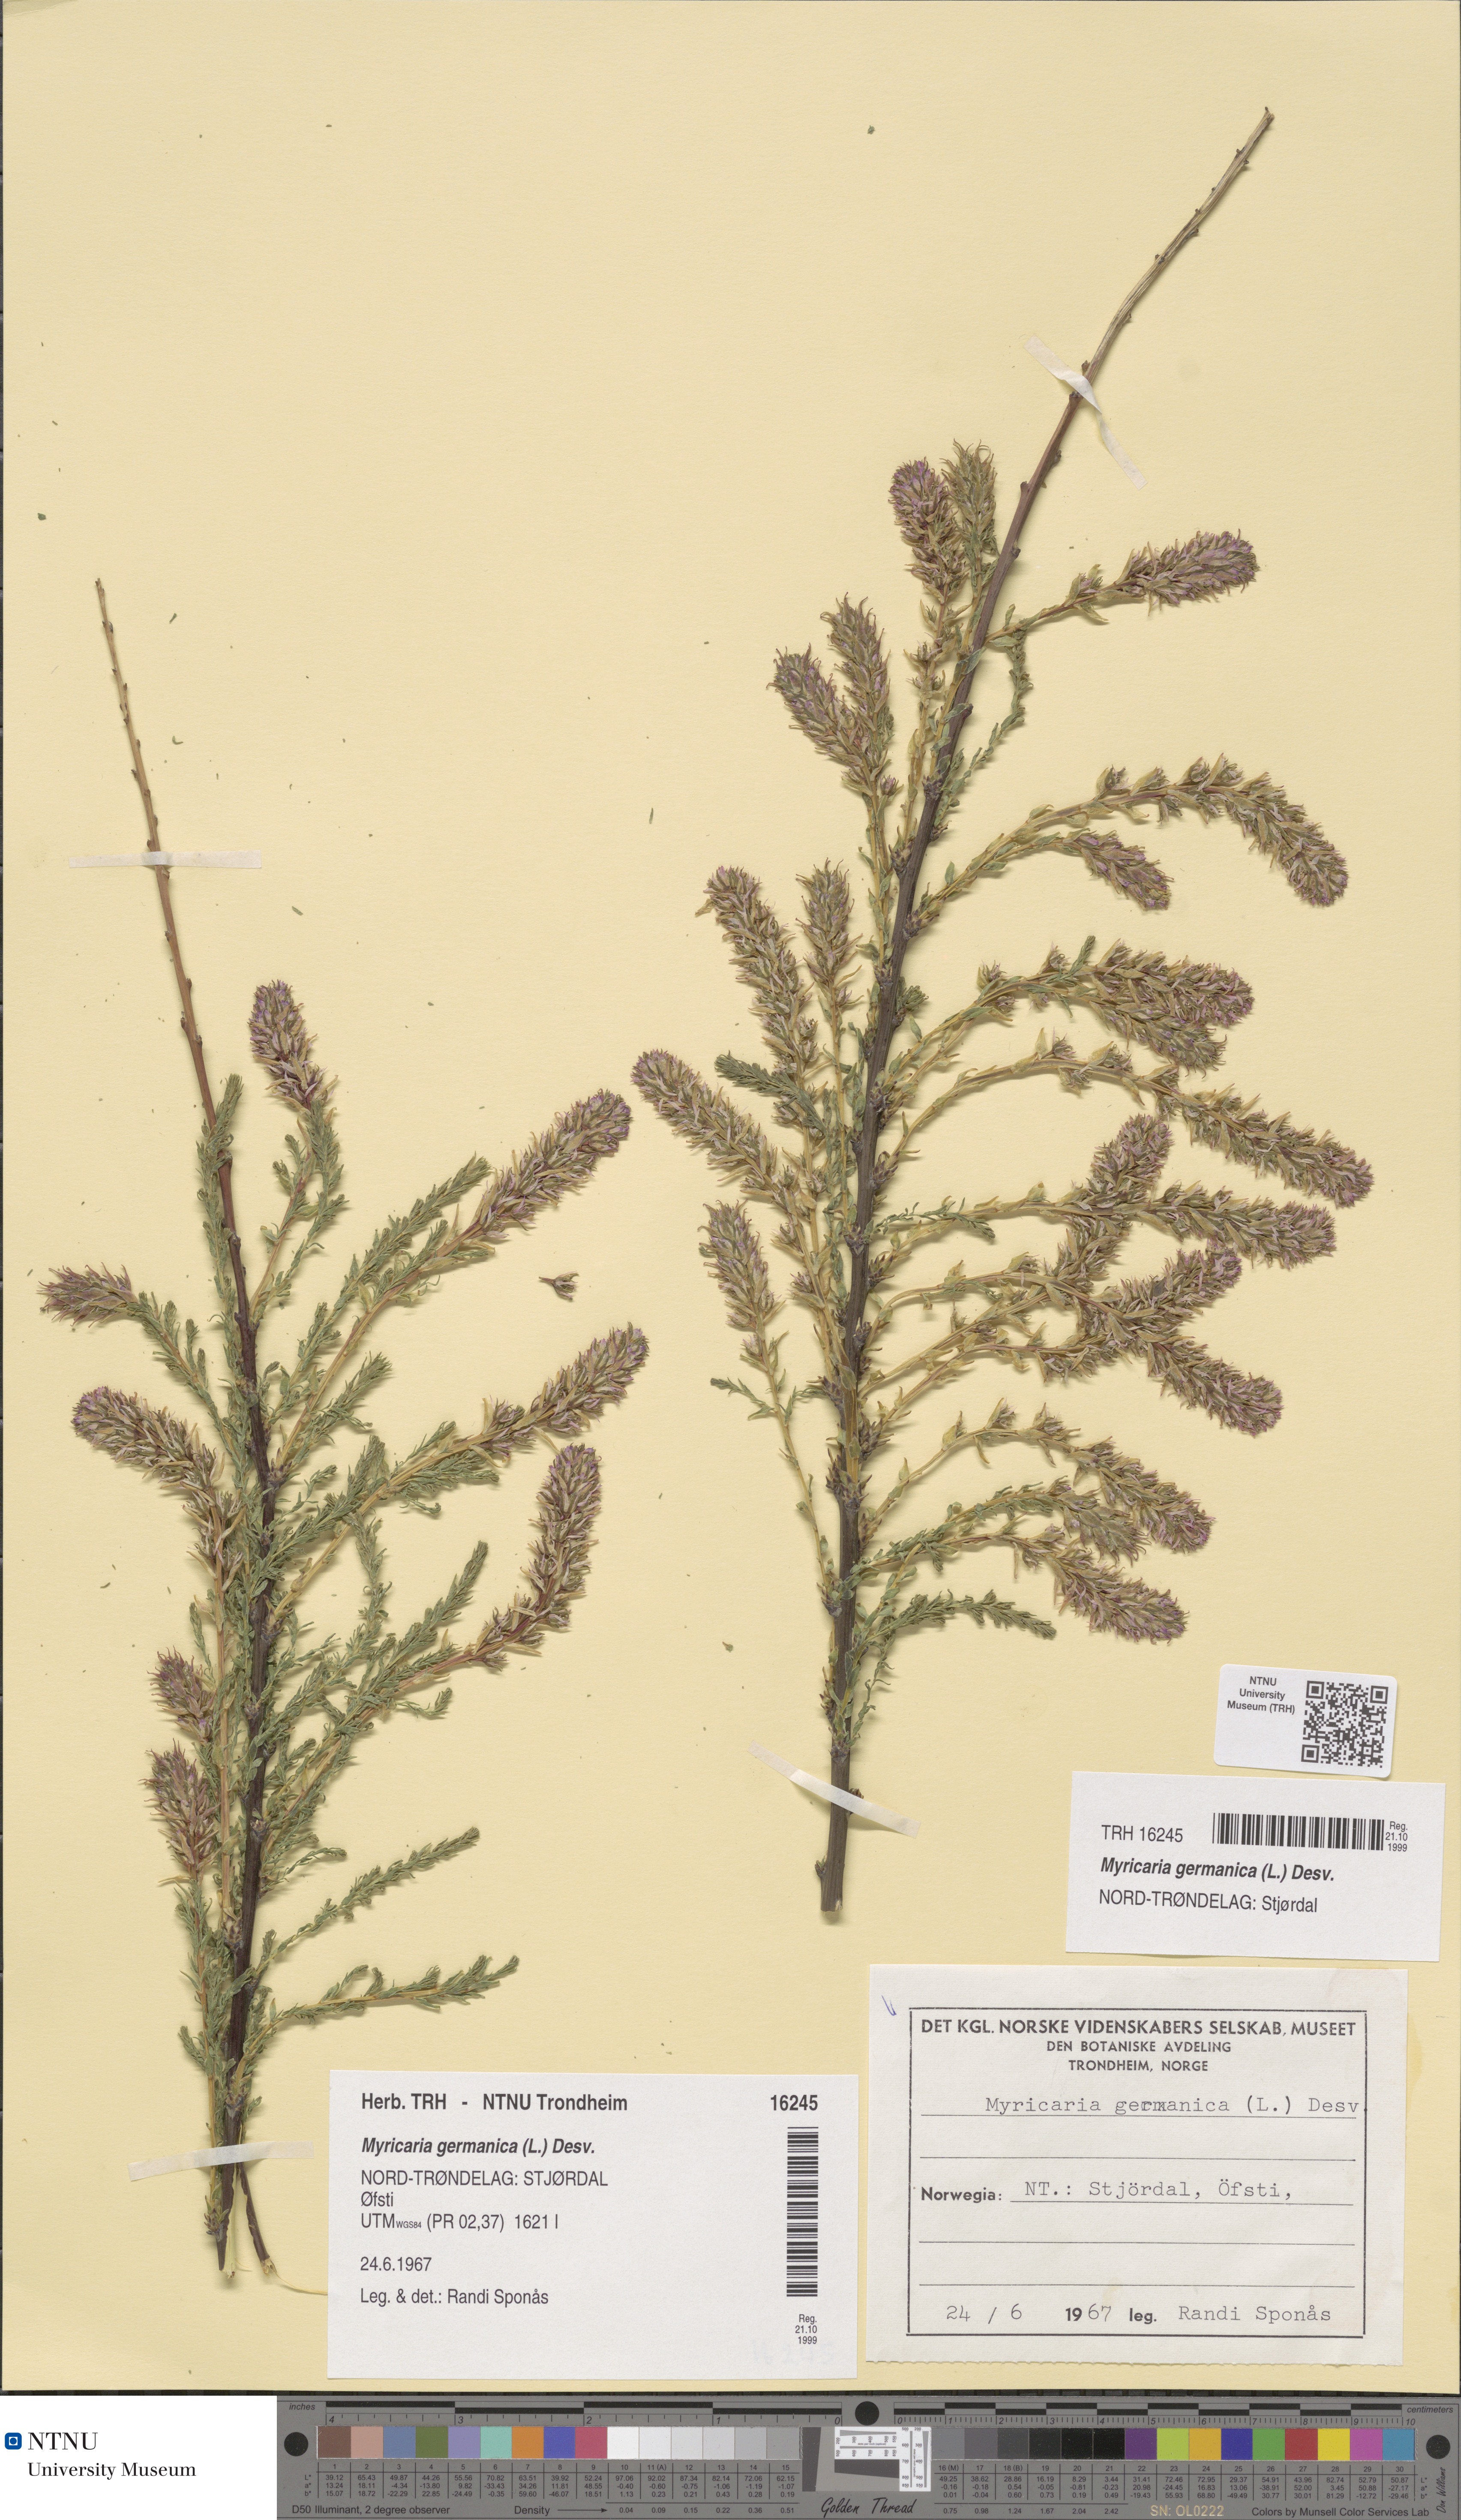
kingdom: Plantae
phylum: Tracheophyta
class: Magnoliopsida
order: Caryophyllales
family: Tamaricaceae
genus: Myricaria
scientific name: Myricaria germanica
